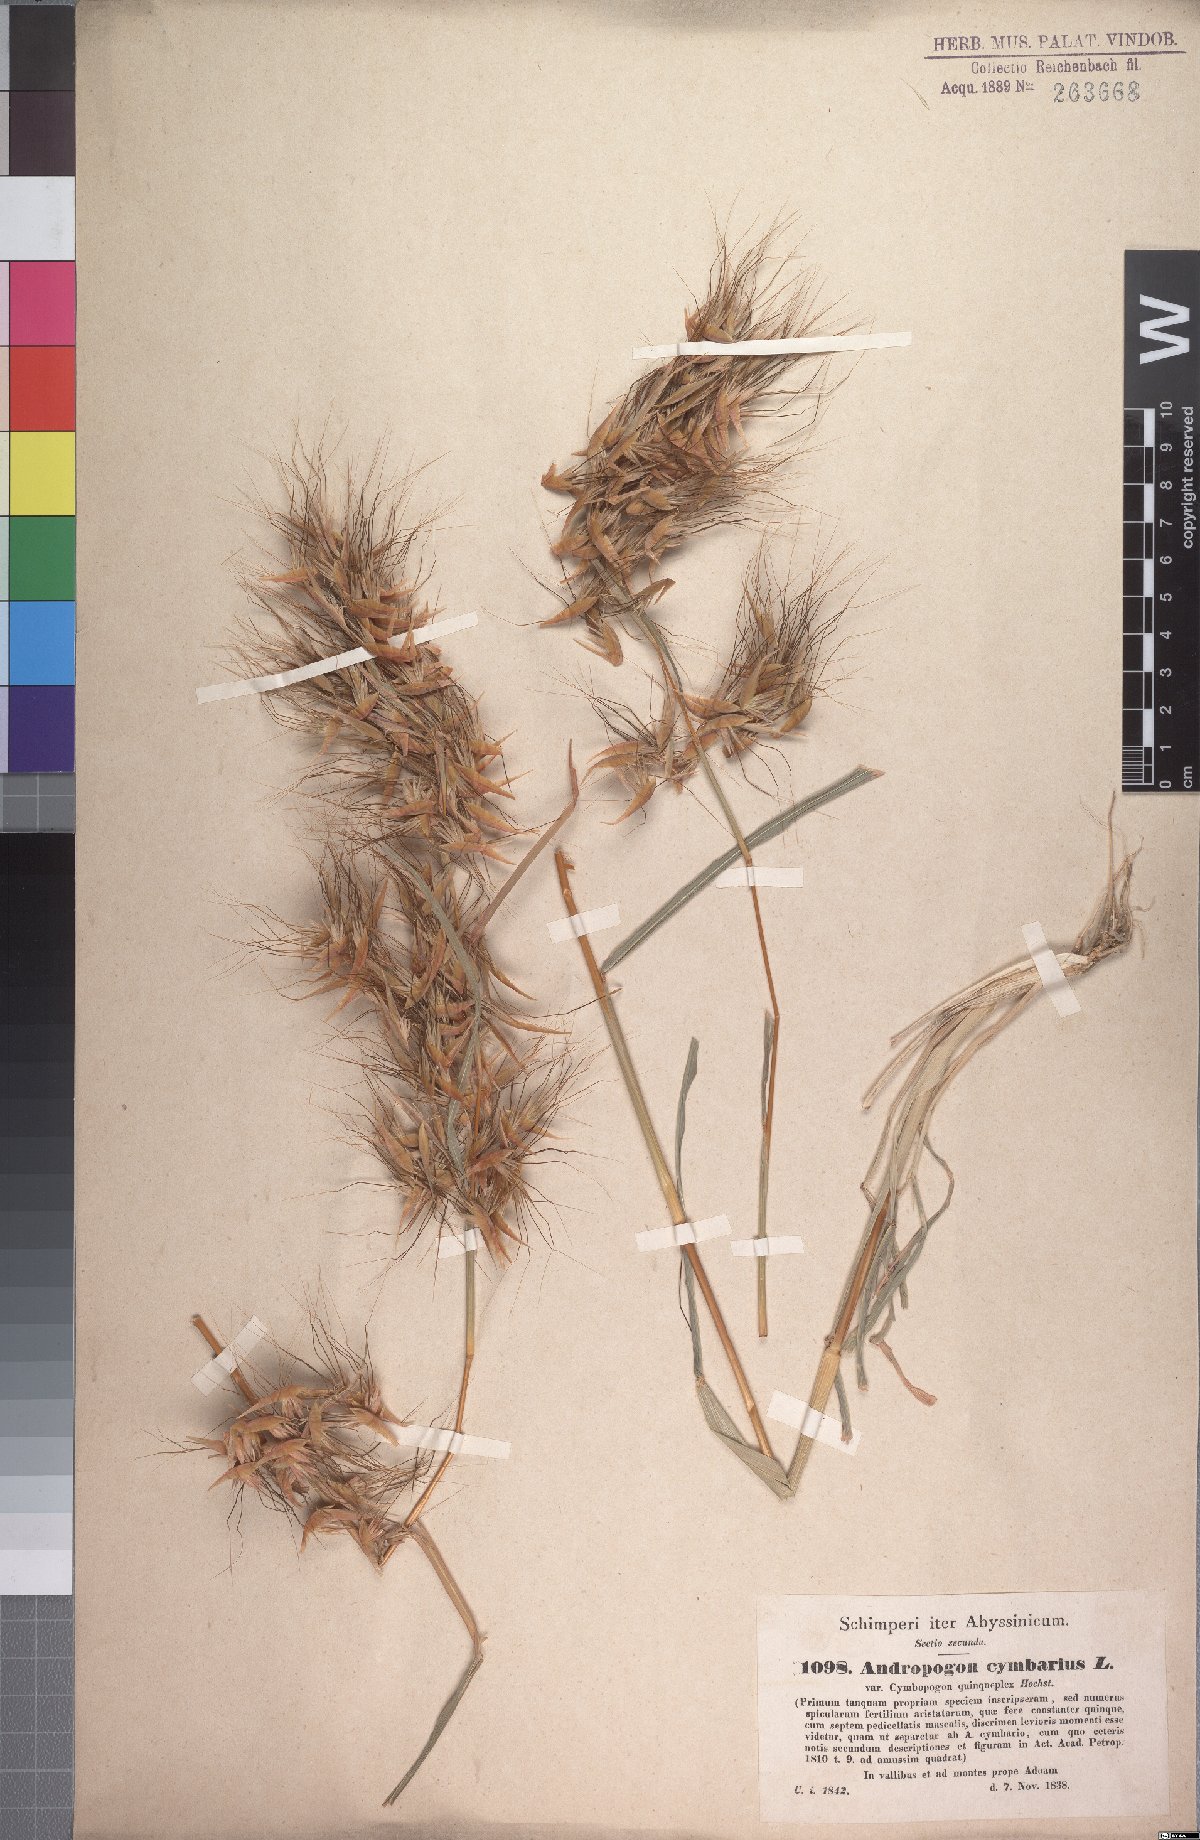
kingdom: Plantae
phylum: Tracheophyta
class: Liliopsida
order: Poales
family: Poaceae
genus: Hyparrhenia
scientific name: Hyparrhenia anthistirioides
